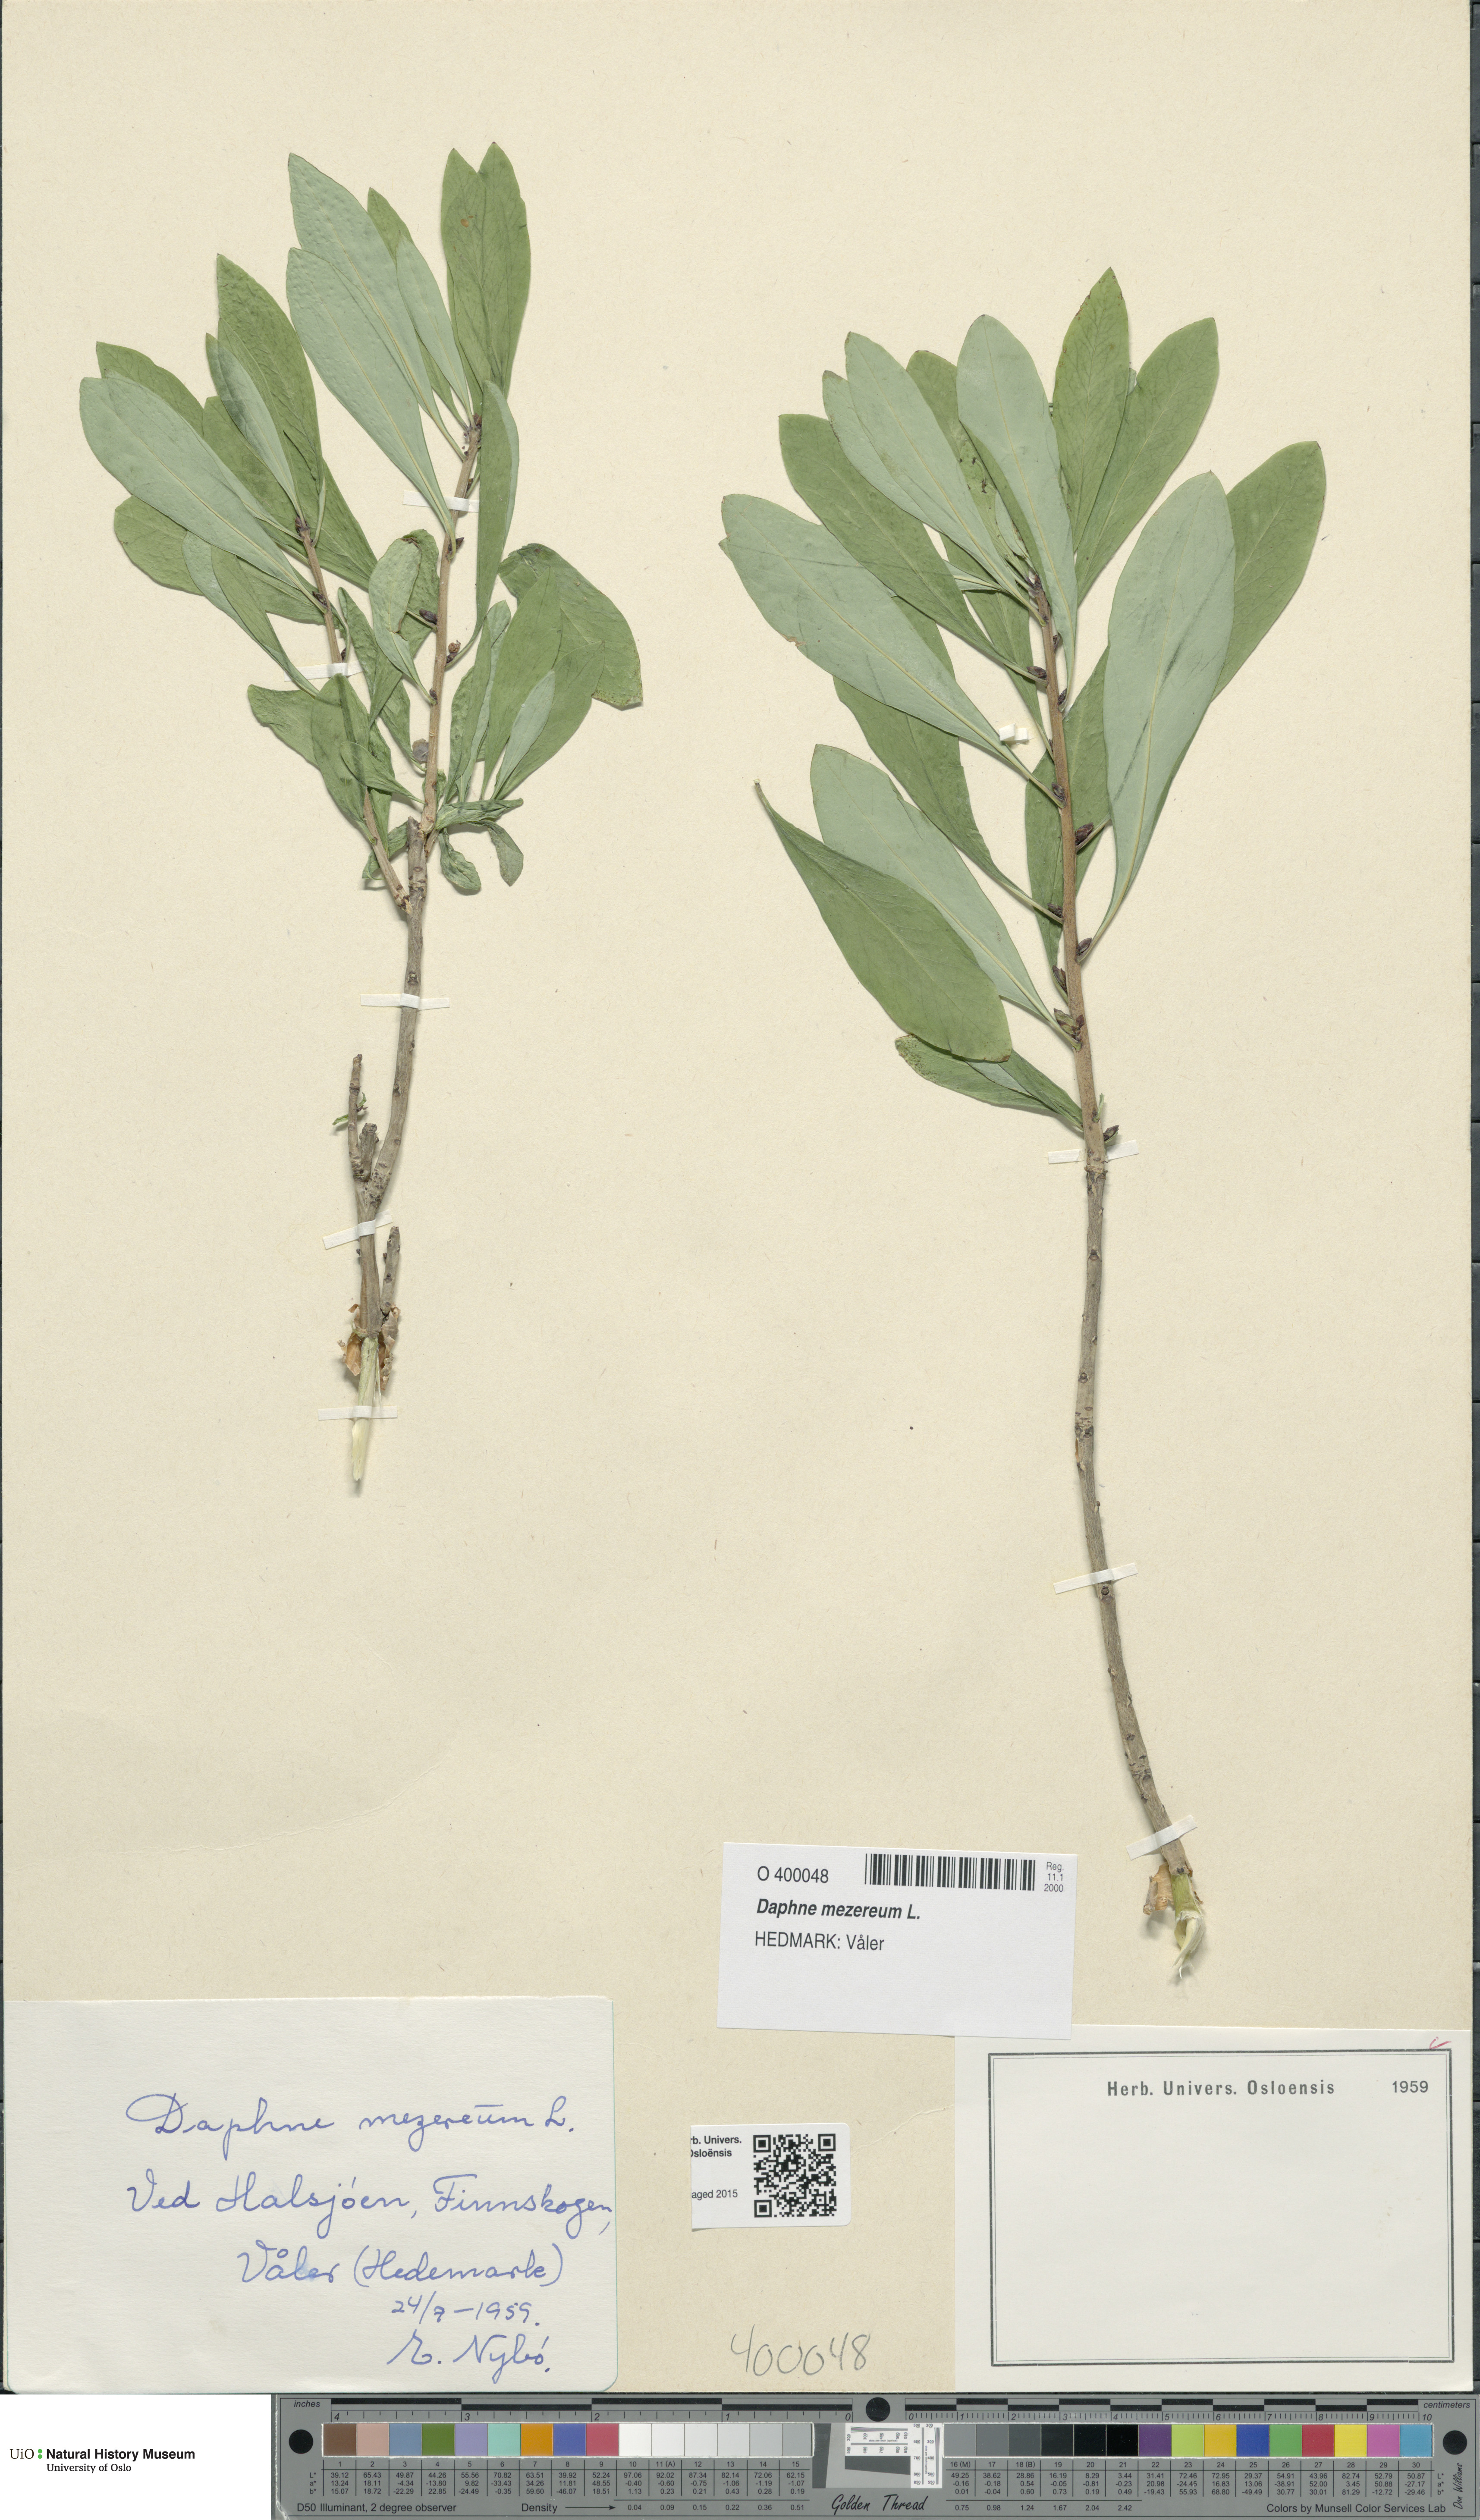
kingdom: Plantae
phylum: Tracheophyta
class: Magnoliopsida
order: Malvales
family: Thymelaeaceae
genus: Daphne
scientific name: Daphne mezereum
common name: Mezereon
